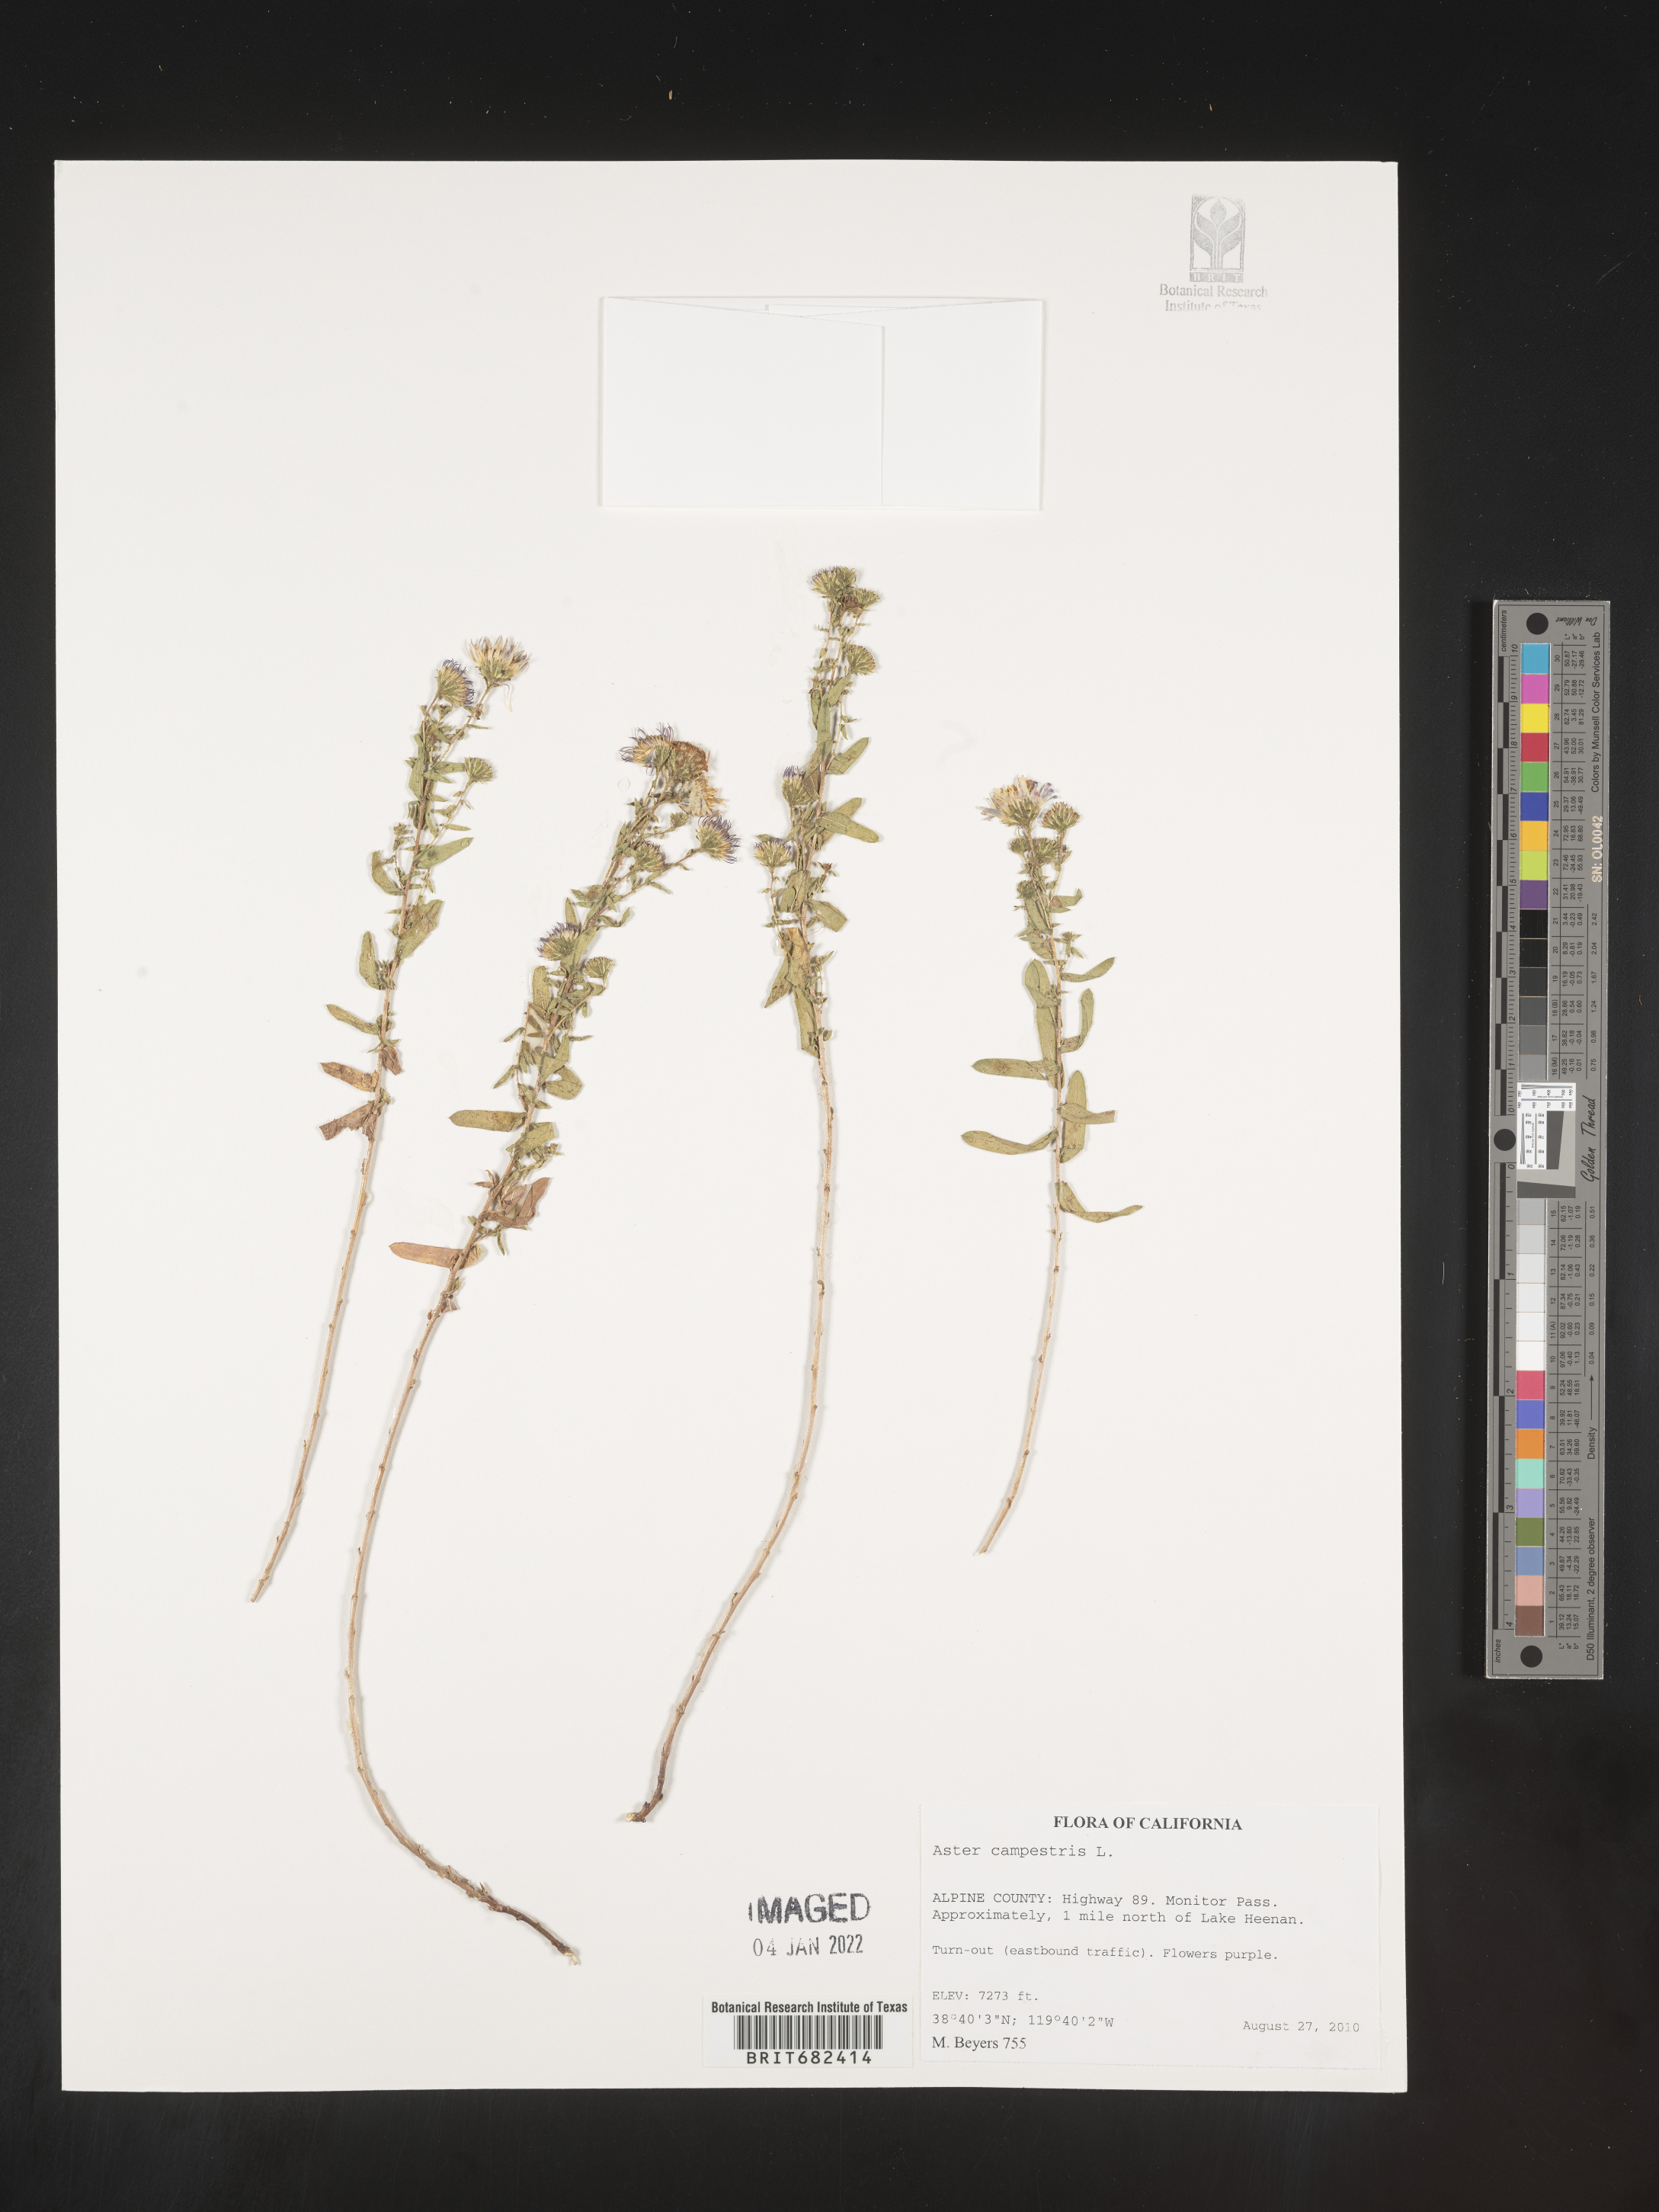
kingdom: Plantae
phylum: Tracheophyta
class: Magnoliopsida
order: Asterales
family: Asteraceae
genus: Aster
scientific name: Aster
